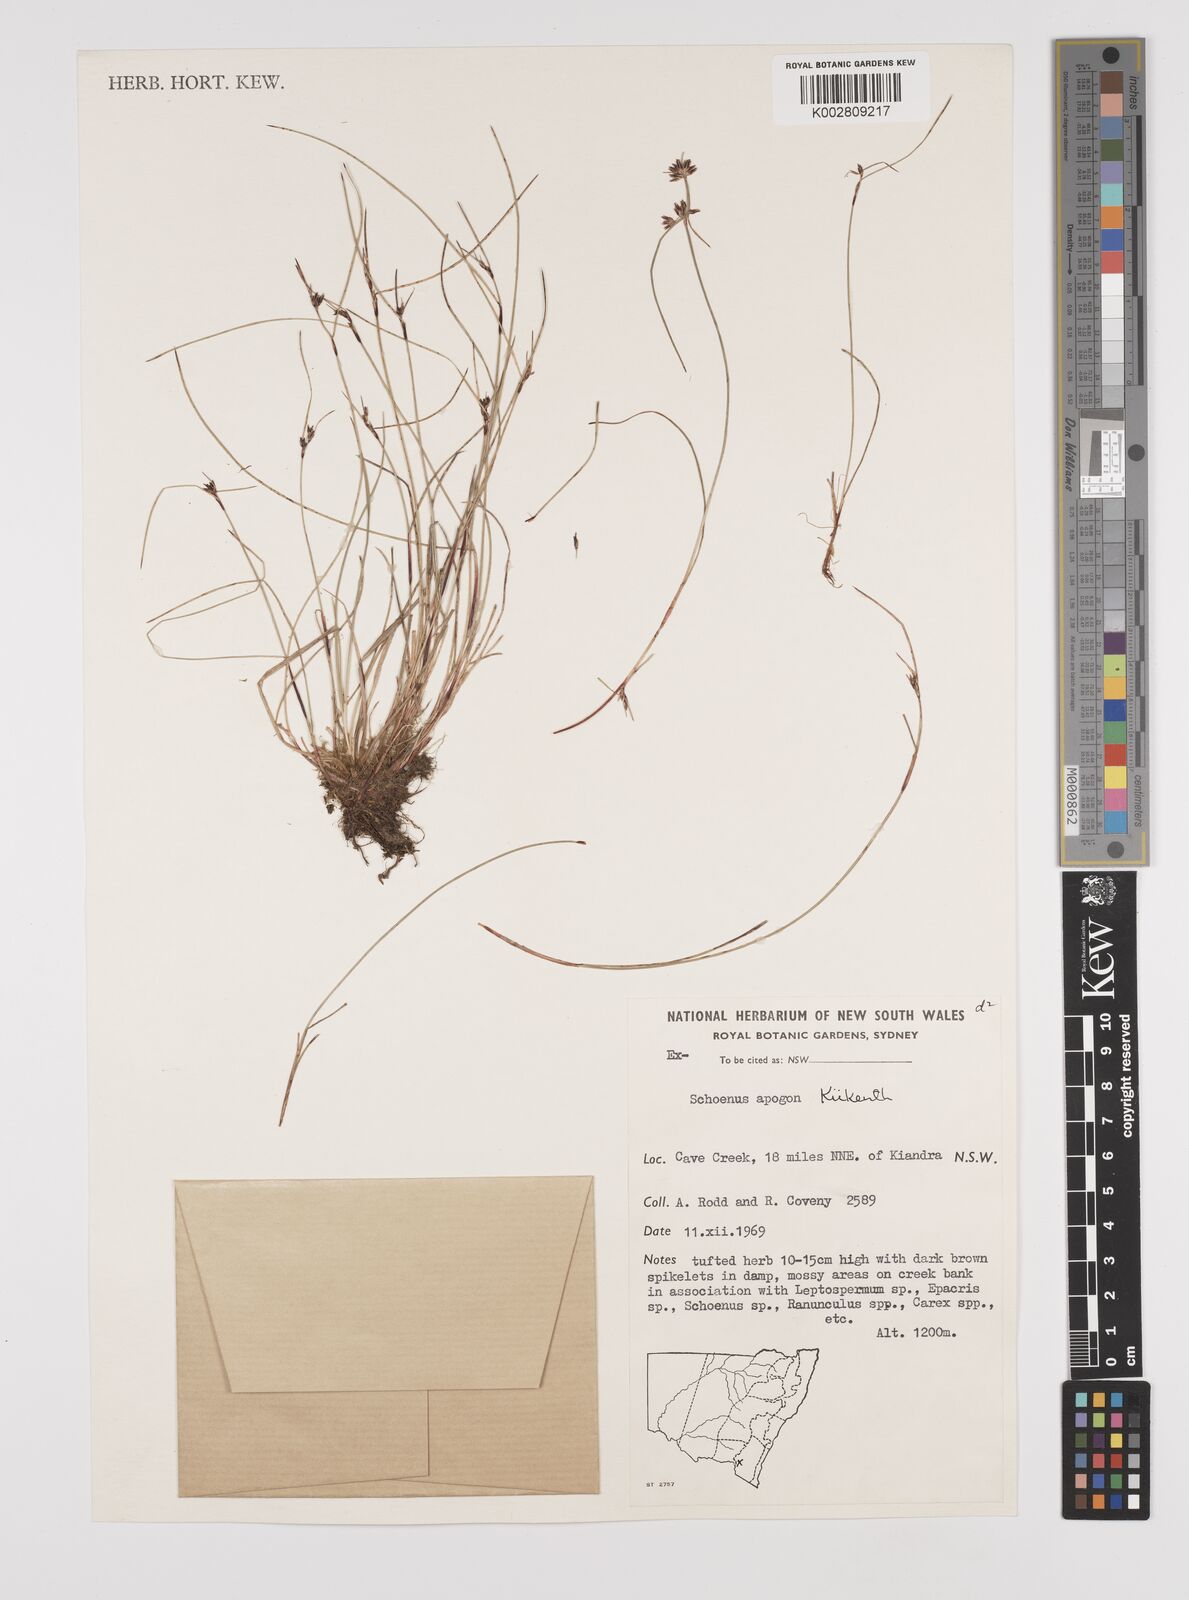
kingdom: Plantae
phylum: Tracheophyta
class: Liliopsida
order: Poales
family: Cyperaceae
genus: Schoenus
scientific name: Schoenus apogon
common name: Smooth bogrush
